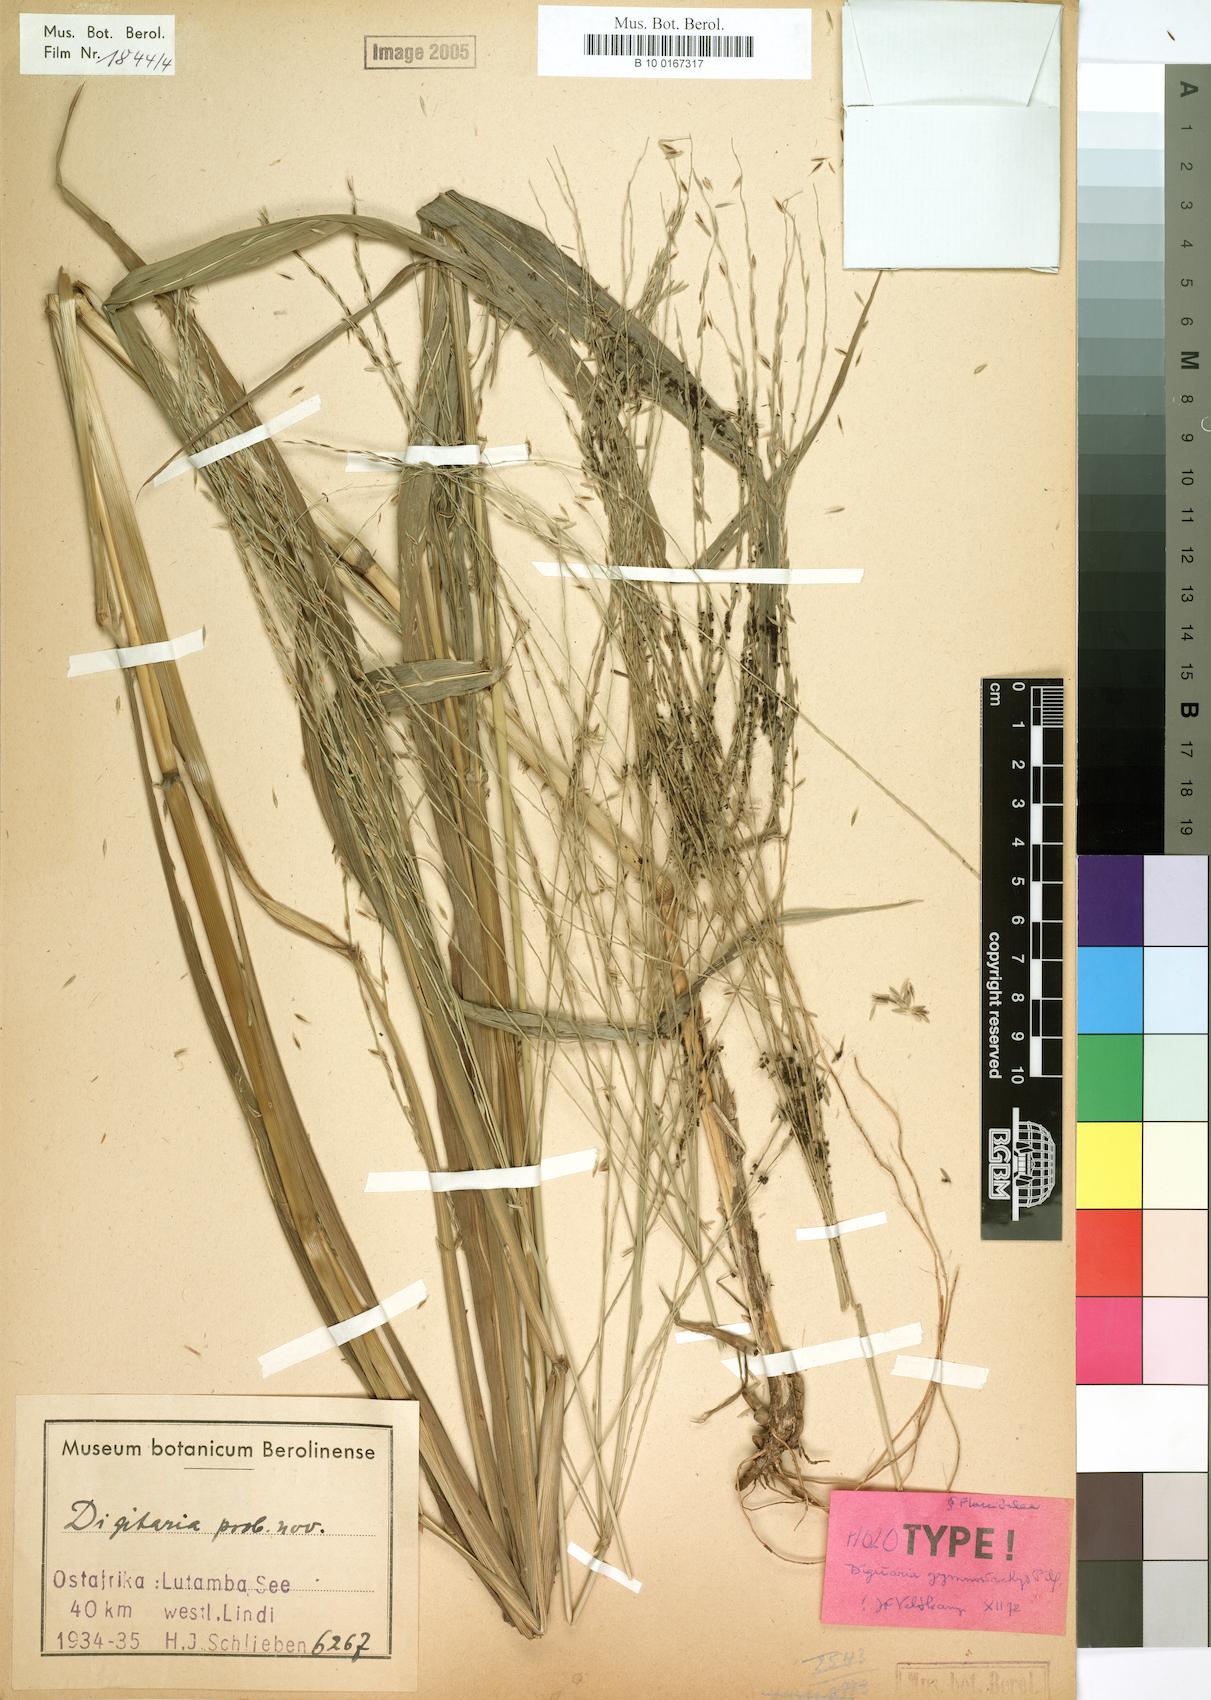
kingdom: Plantae
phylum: Tracheophyta
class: Liliopsida
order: Poales
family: Poaceae
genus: Digitaria
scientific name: Digitaria gymnostachys
